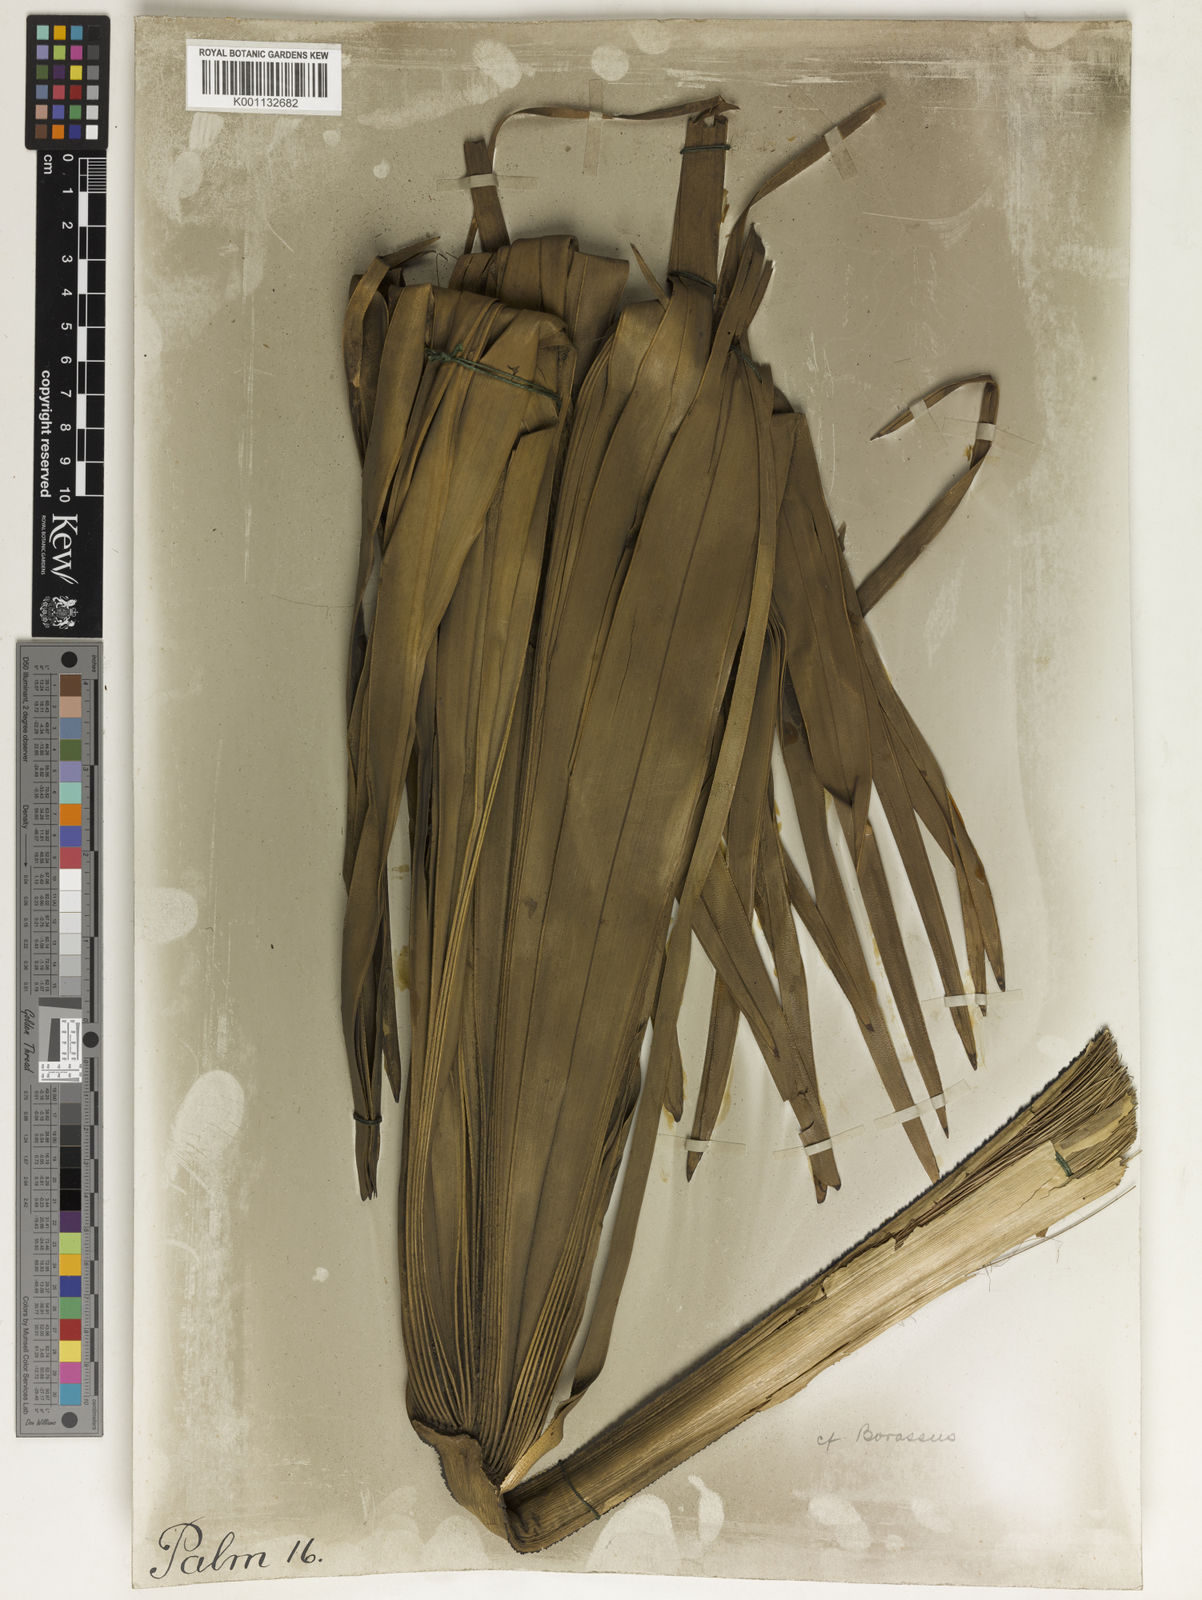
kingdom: Plantae
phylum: Tracheophyta
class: Liliopsida
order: Arecales
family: Arecaceae
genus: Borassus
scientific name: Borassus
